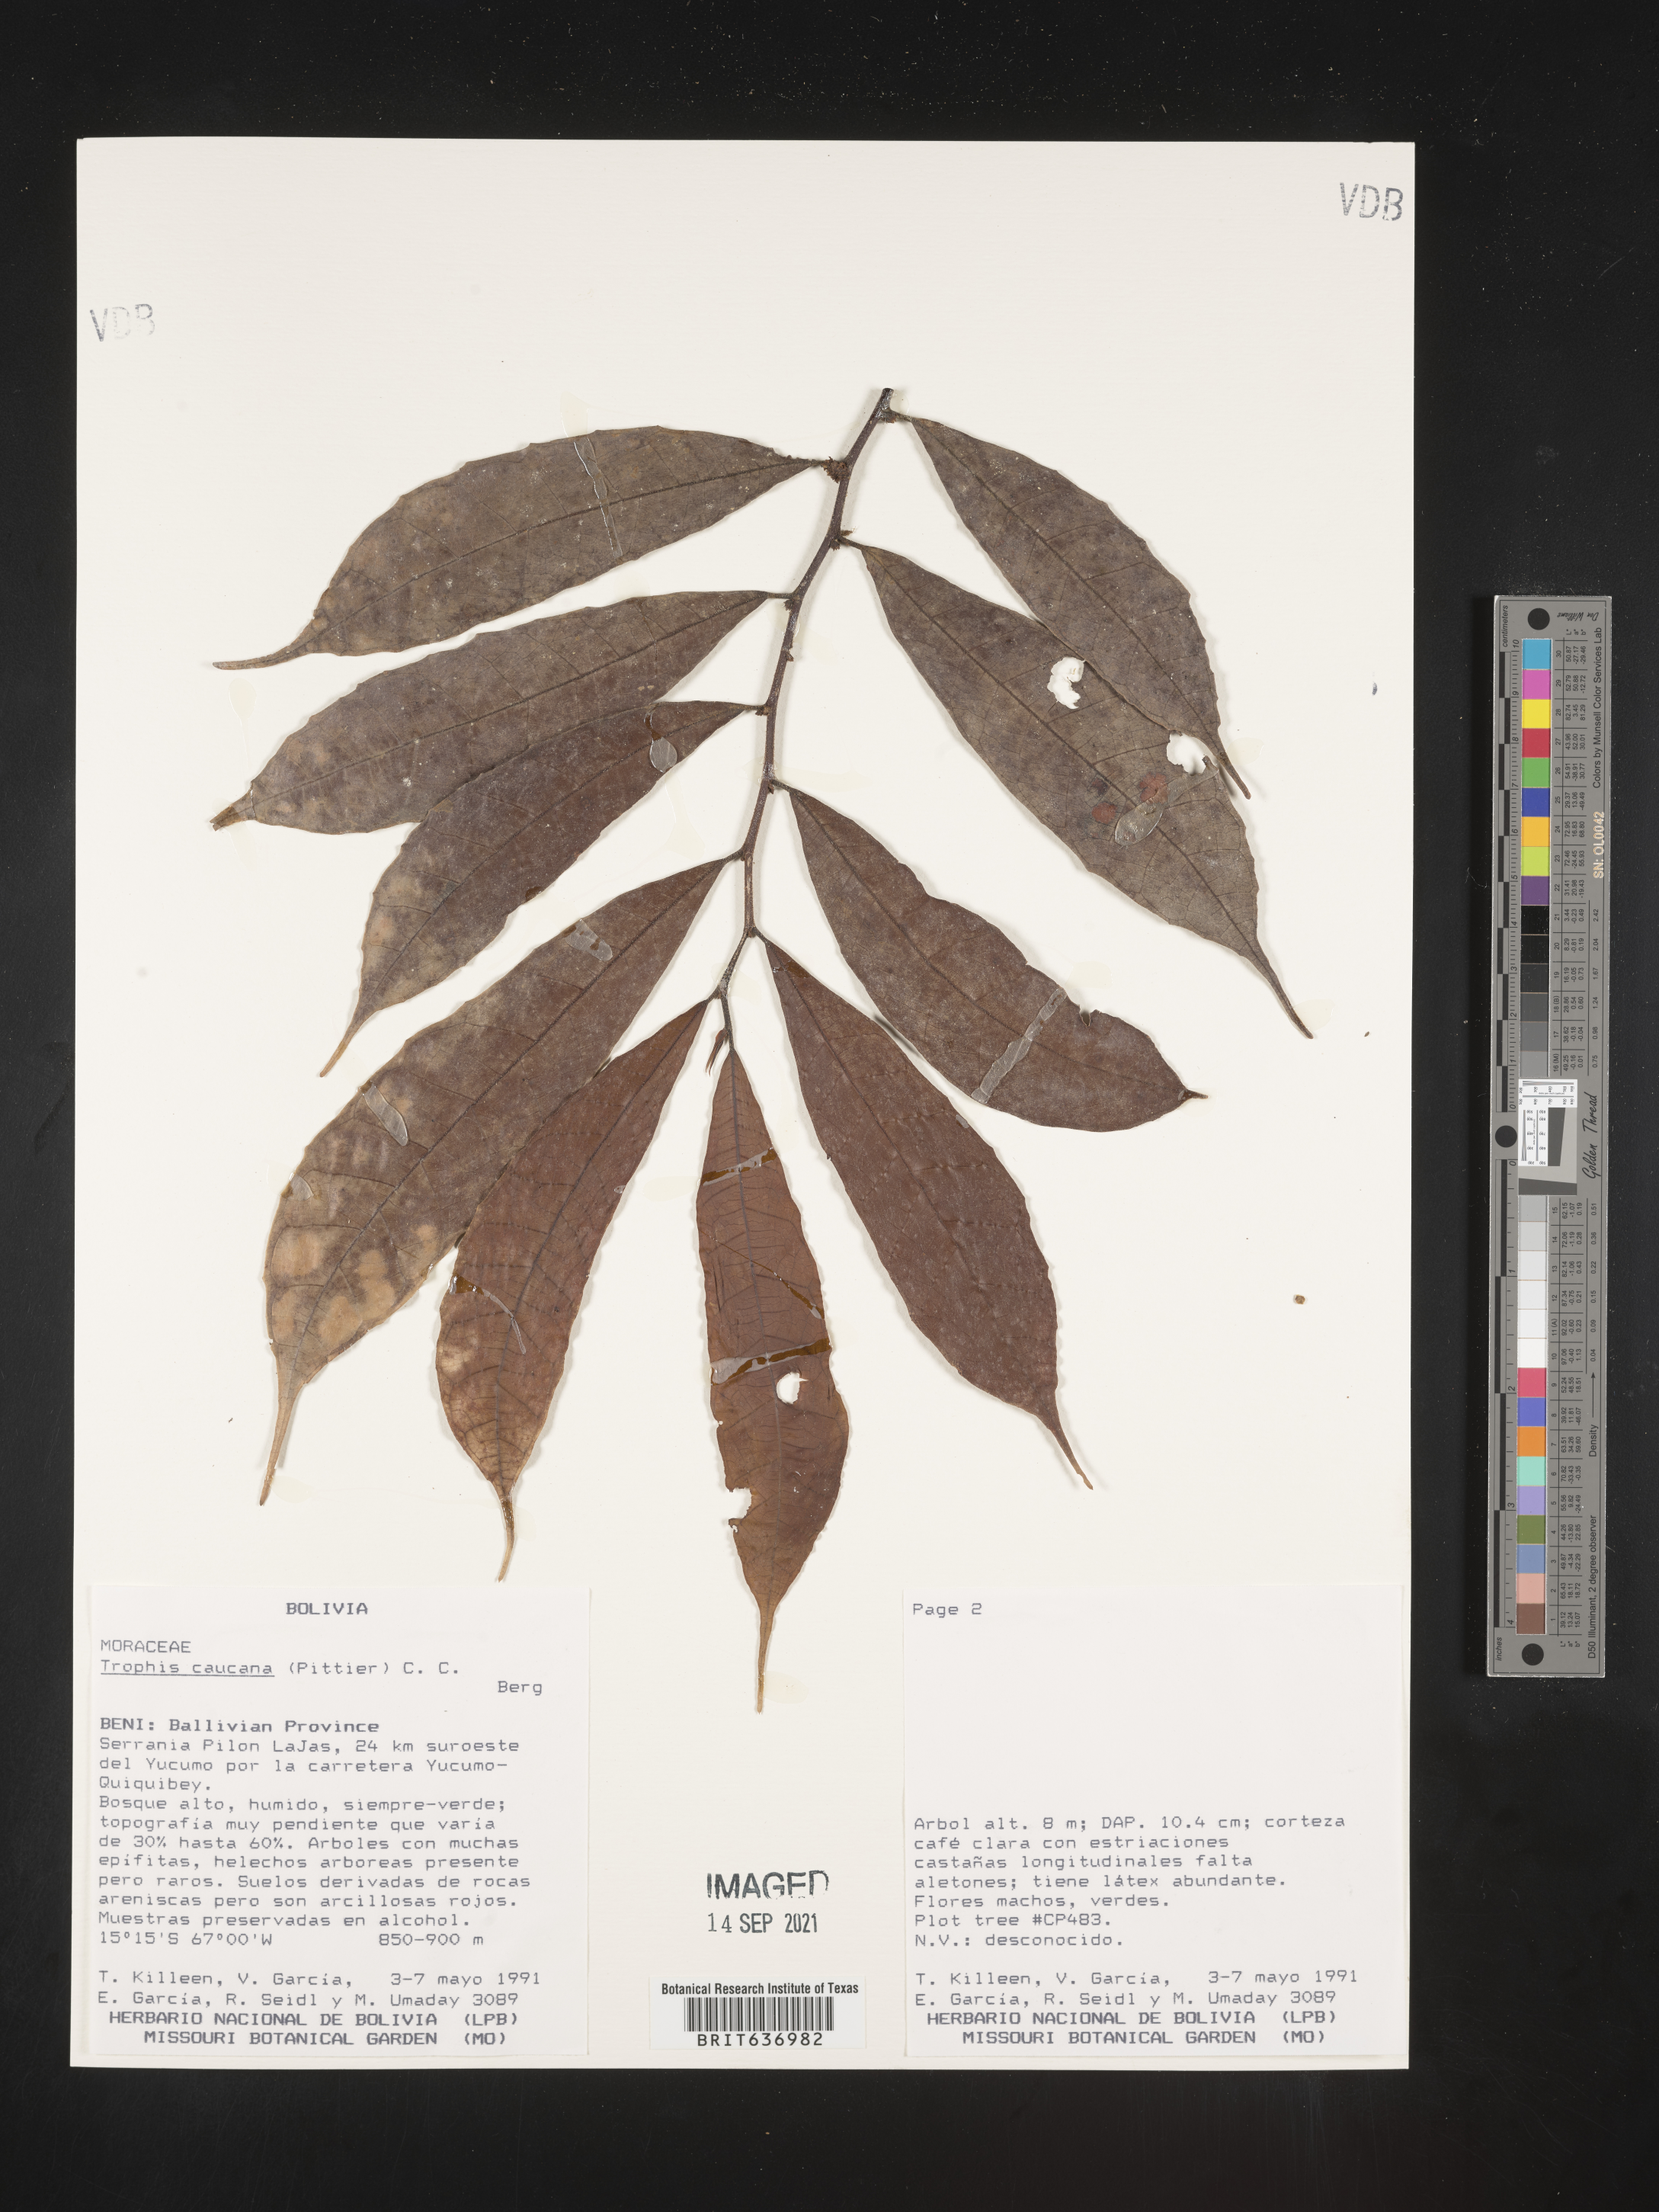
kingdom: Plantae
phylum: Tracheophyta
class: Magnoliopsida
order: Rosales
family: Moraceae
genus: Trophis
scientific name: Trophis
